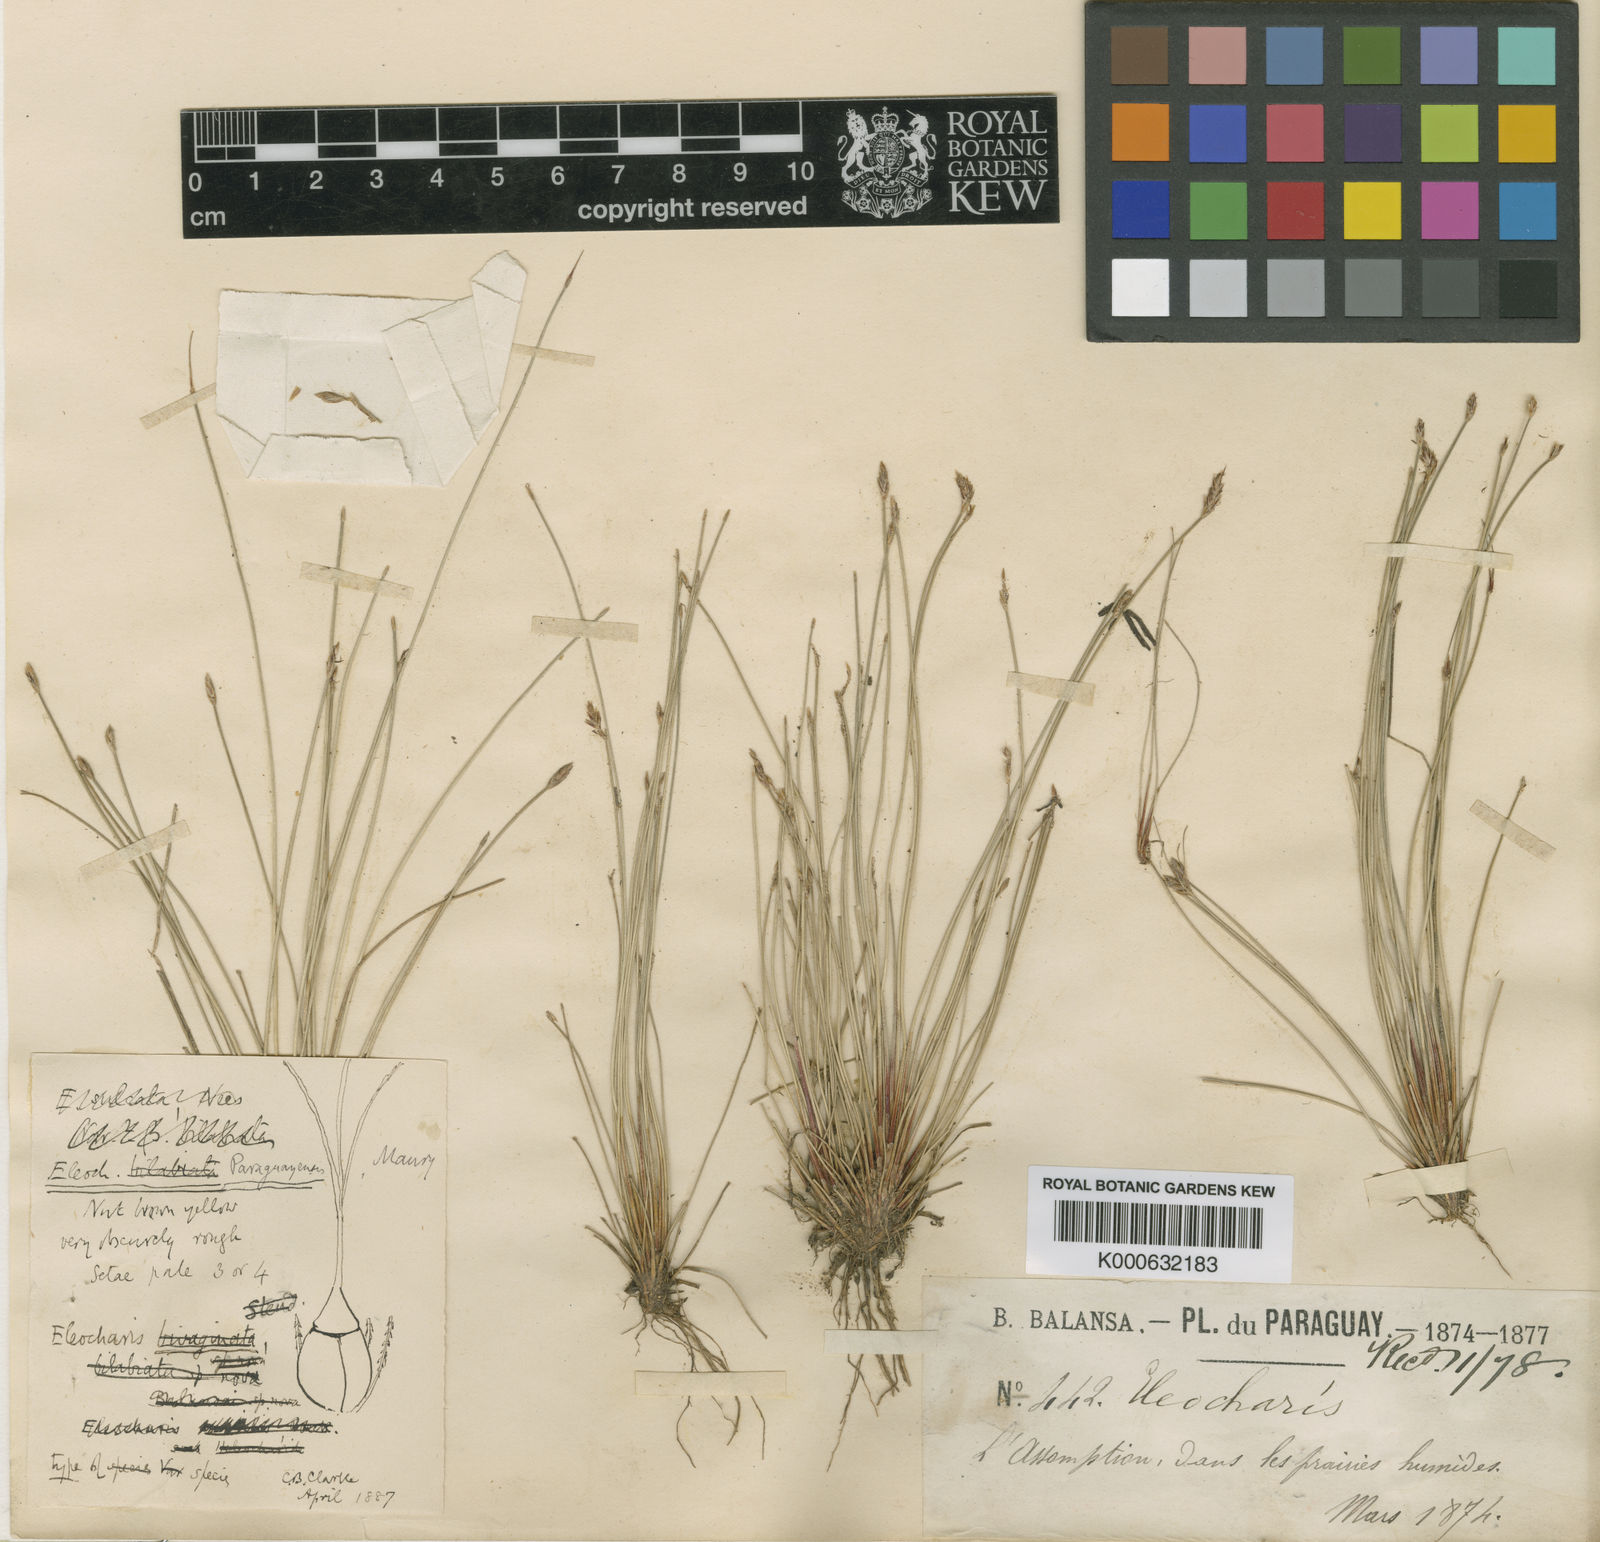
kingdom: Plantae
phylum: Tracheophyta
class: Liliopsida
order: Poales
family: Cyperaceae
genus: Eleocharis
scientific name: Eleocharis paraguayensis
